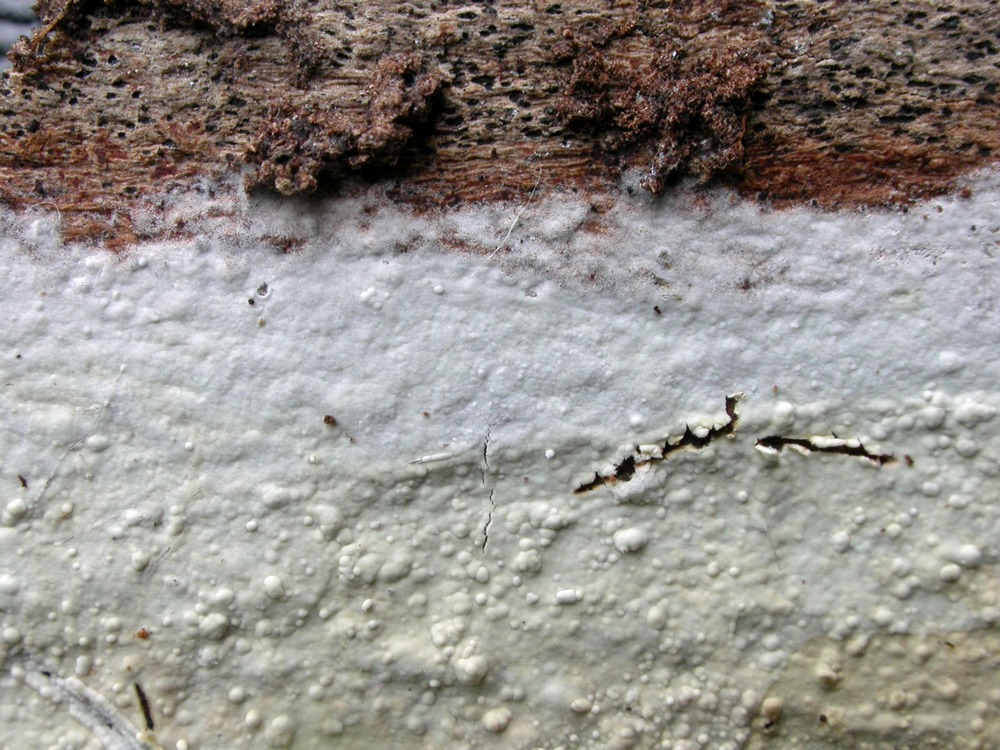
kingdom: Fungi
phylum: Basidiomycota
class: Agaricomycetes
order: Corticiales
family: Corticiaceae
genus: Lyomyces
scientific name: Lyomyces sambuci
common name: almindelig hyldehinde
